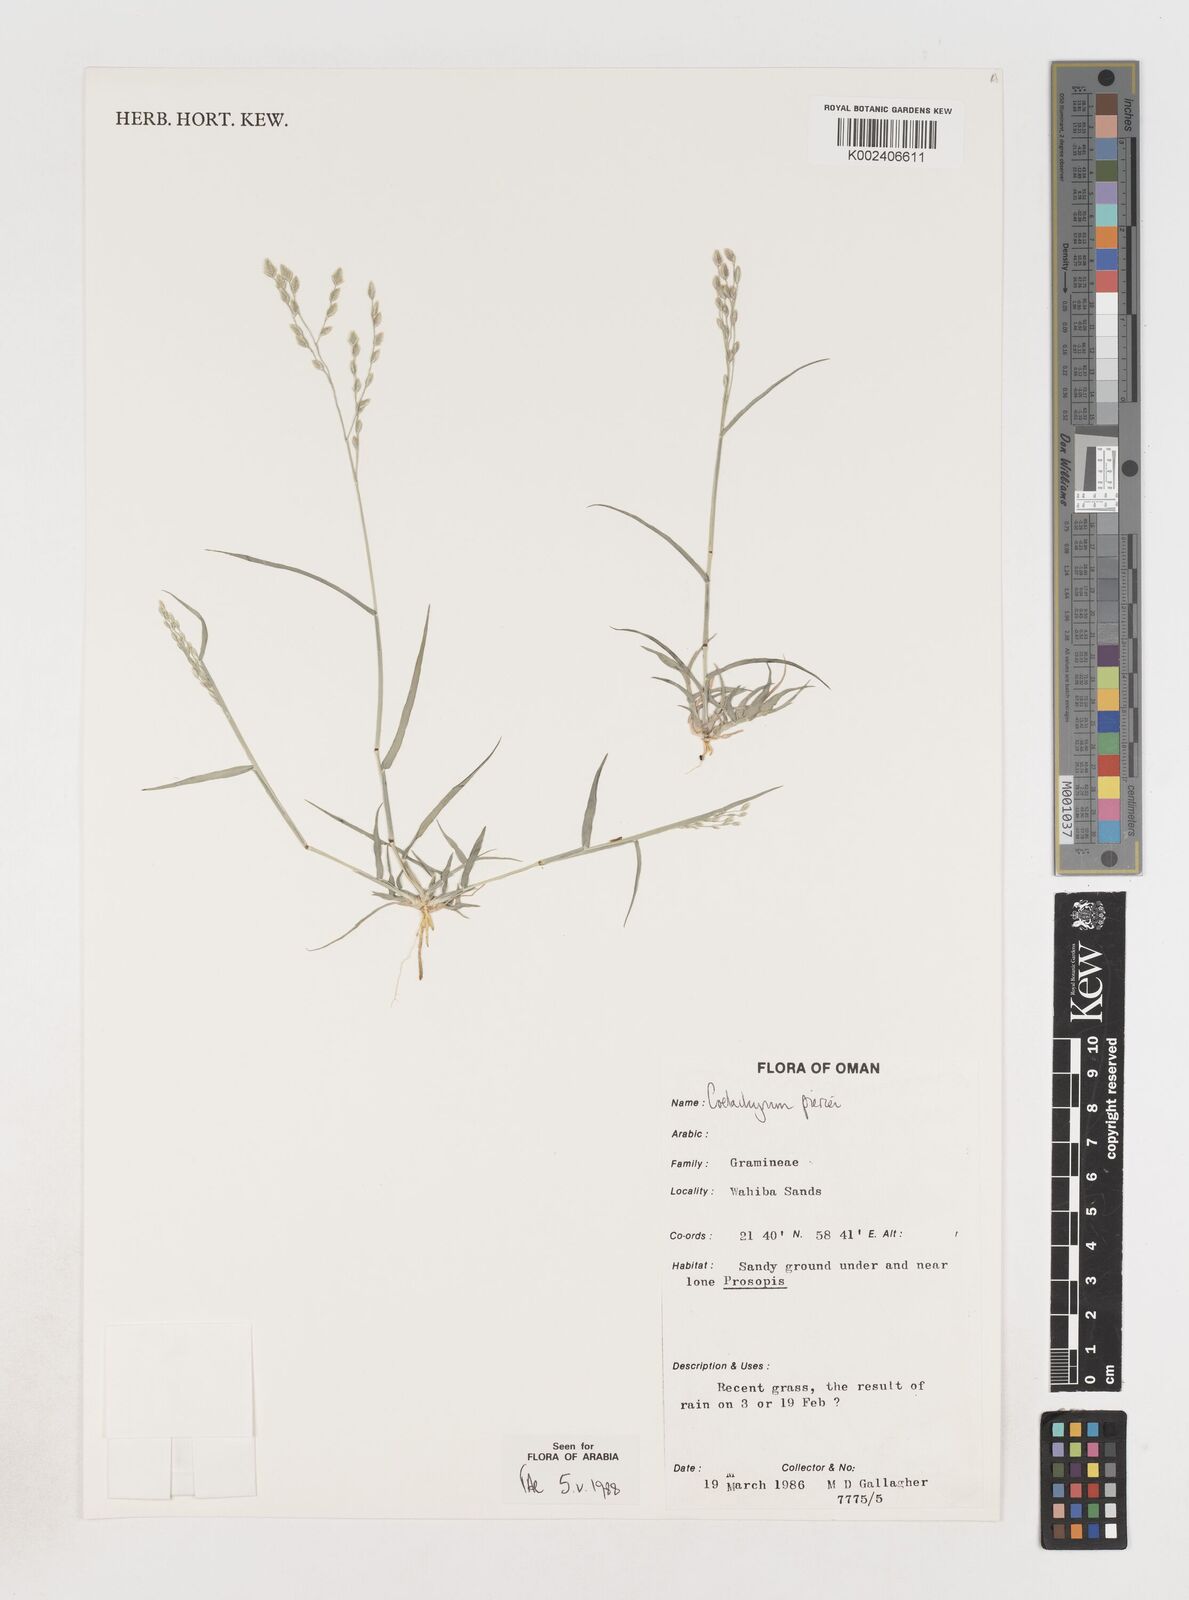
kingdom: Plantae
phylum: Tracheophyta
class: Liliopsida
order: Poales
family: Poaceae
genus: Coelachyrum
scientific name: Coelachyrum piercei
